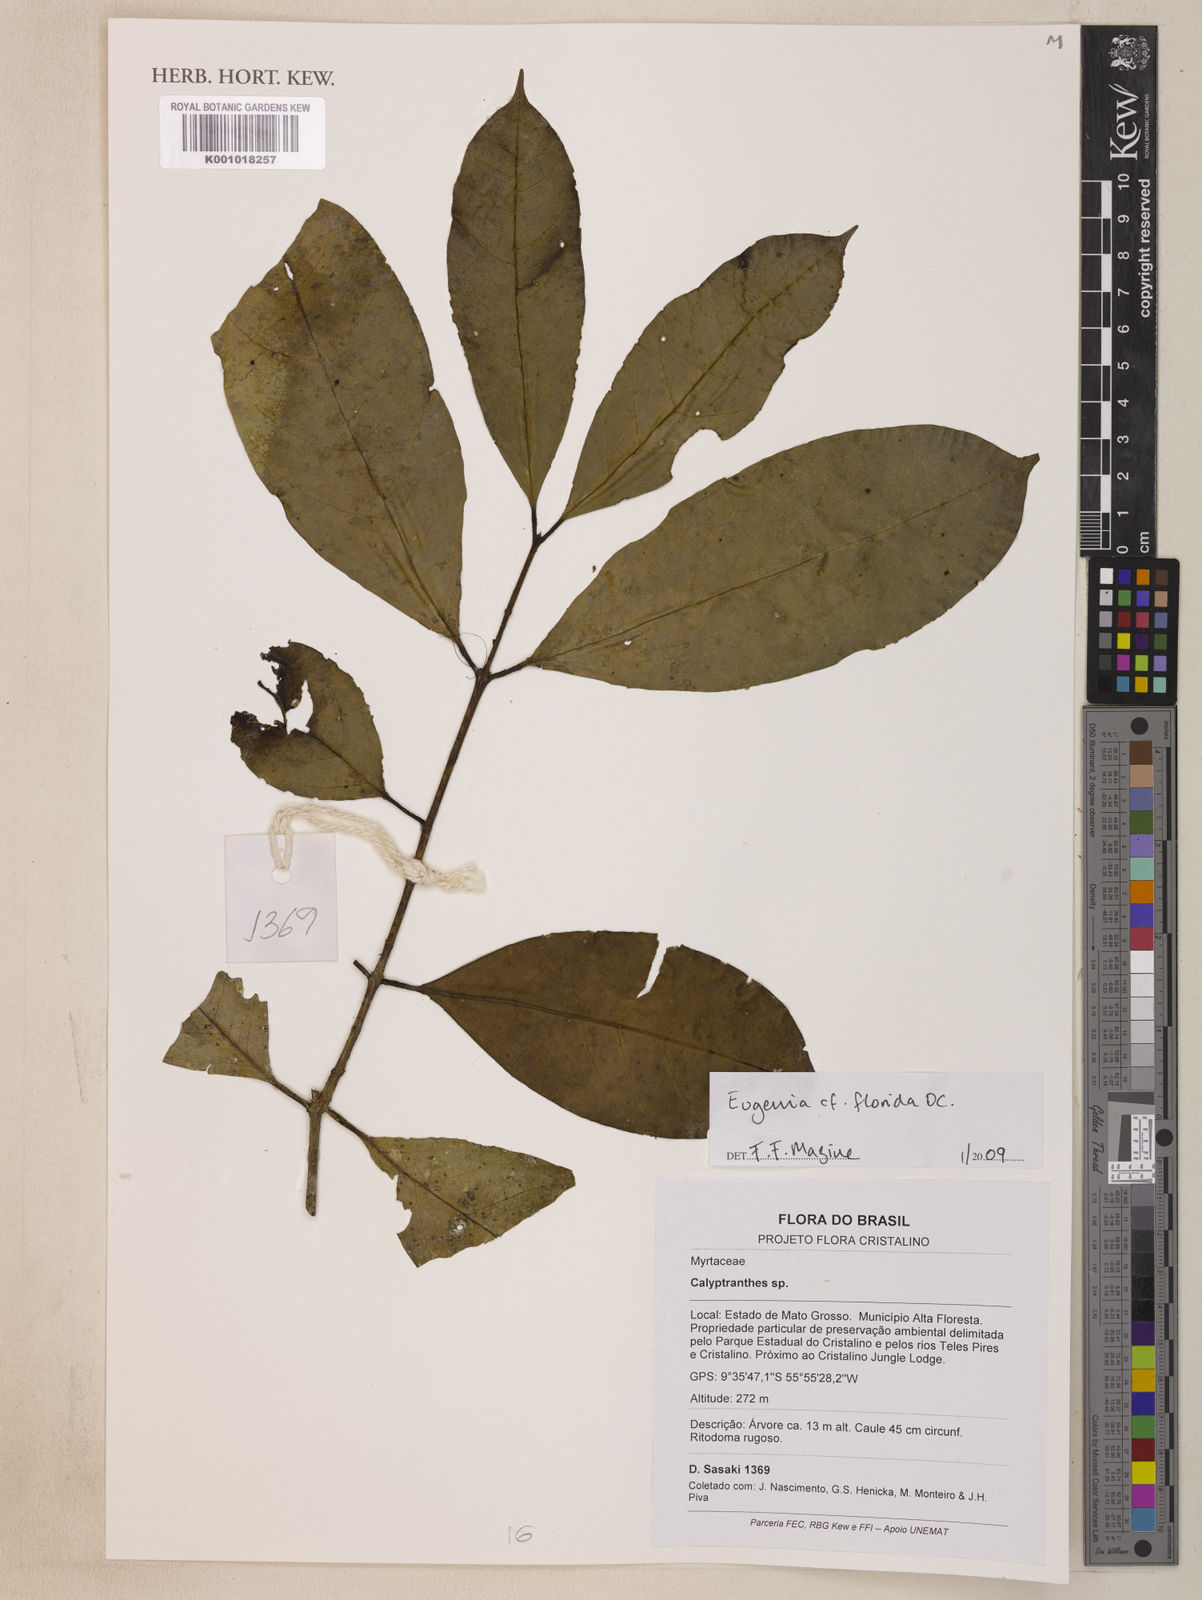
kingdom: Plantae
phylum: Tracheophyta
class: Magnoliopsida
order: Myrtales
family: Myrtaceae
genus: Eugenia
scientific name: Eugenia florida
